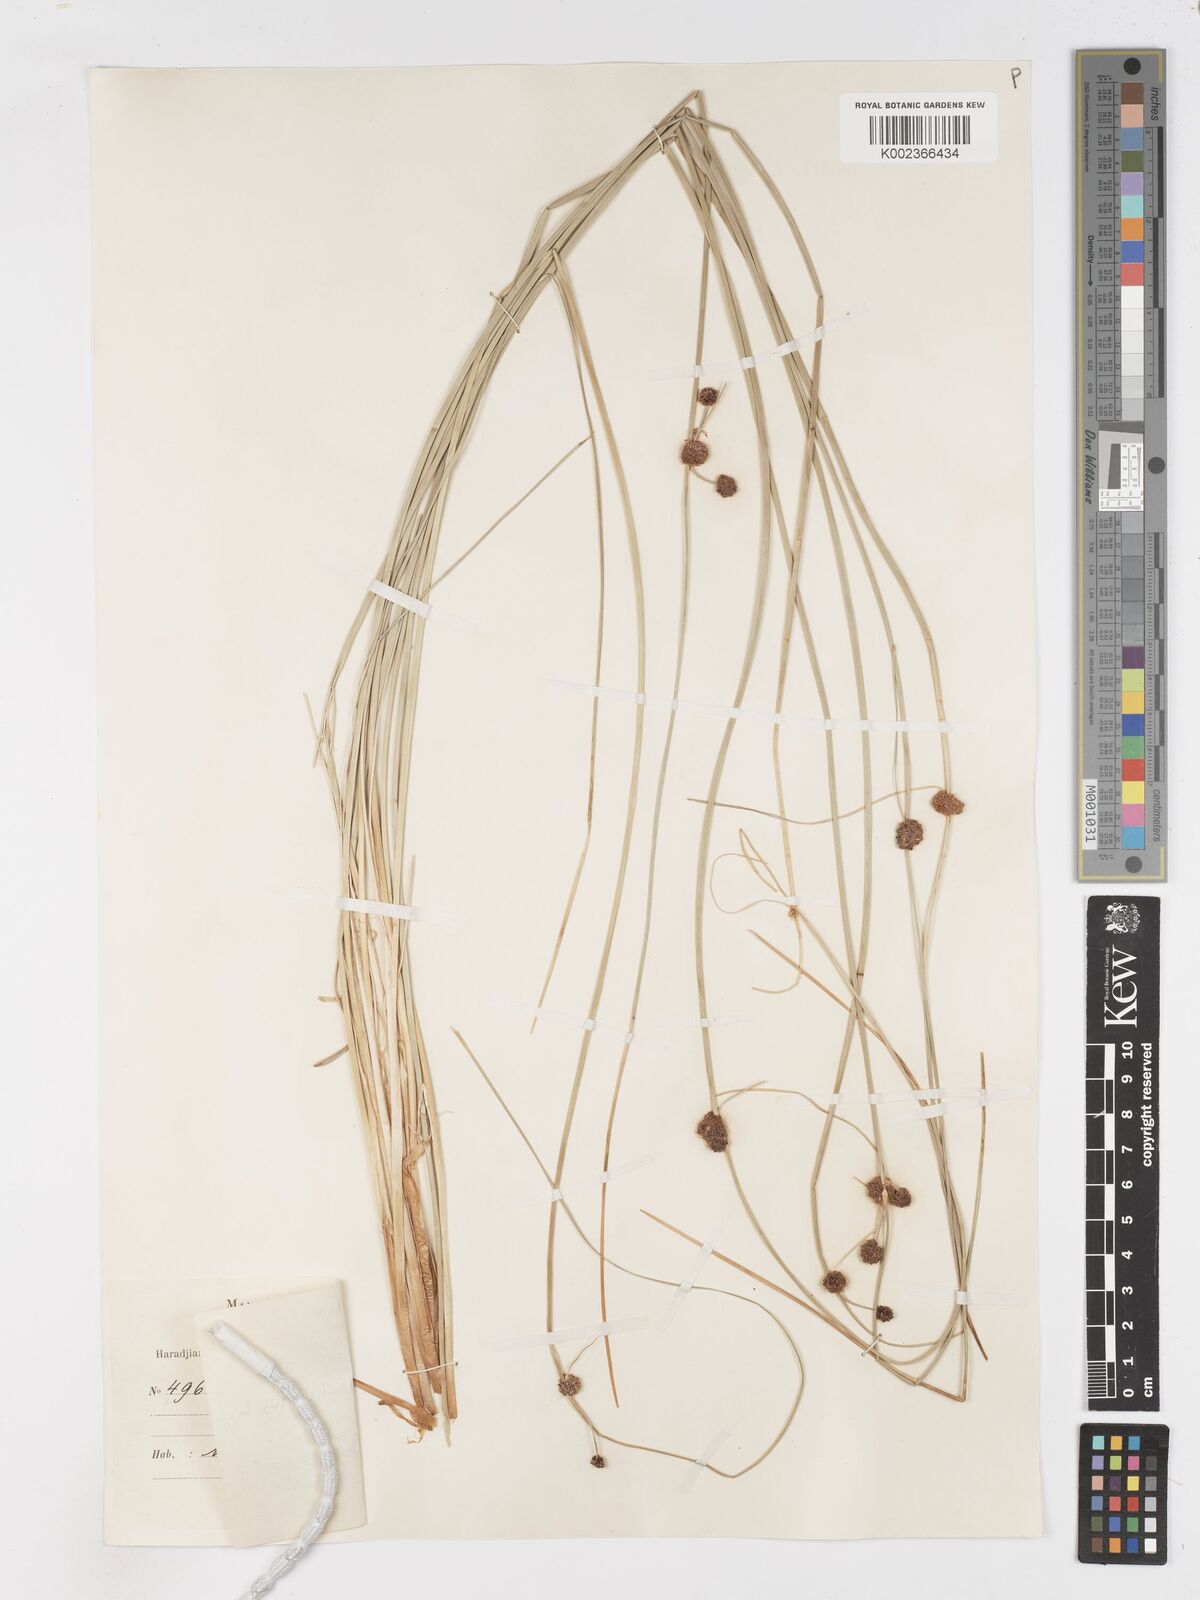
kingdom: Plantae
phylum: Tracheophyta
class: Liliopsida
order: Poales
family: Cyperaceae
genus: Scirpoides
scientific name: Scirpoides holoschoenus
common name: Round-headed club-rush
